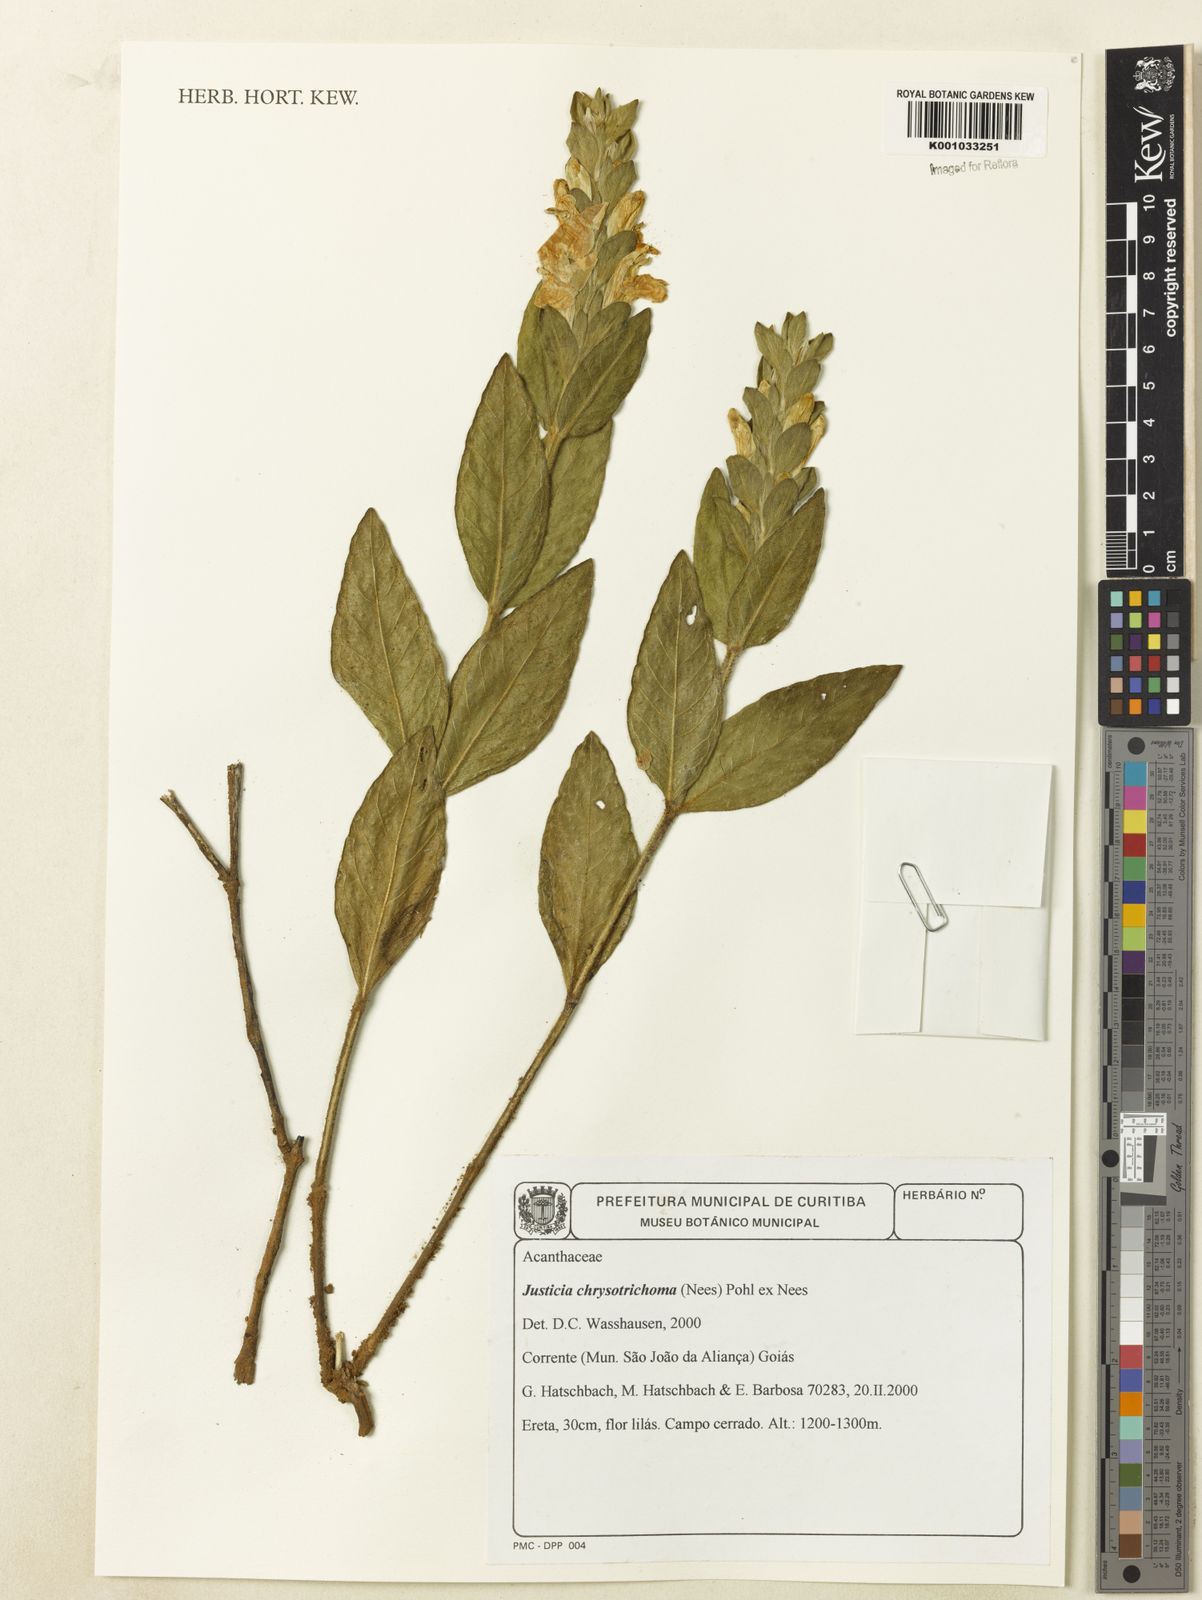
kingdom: Plantae
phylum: Tracheophyta
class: Magnoliopsida
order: Lamiales
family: Acanthaceae
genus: Justicia
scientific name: Justicia chrysotrichoma
